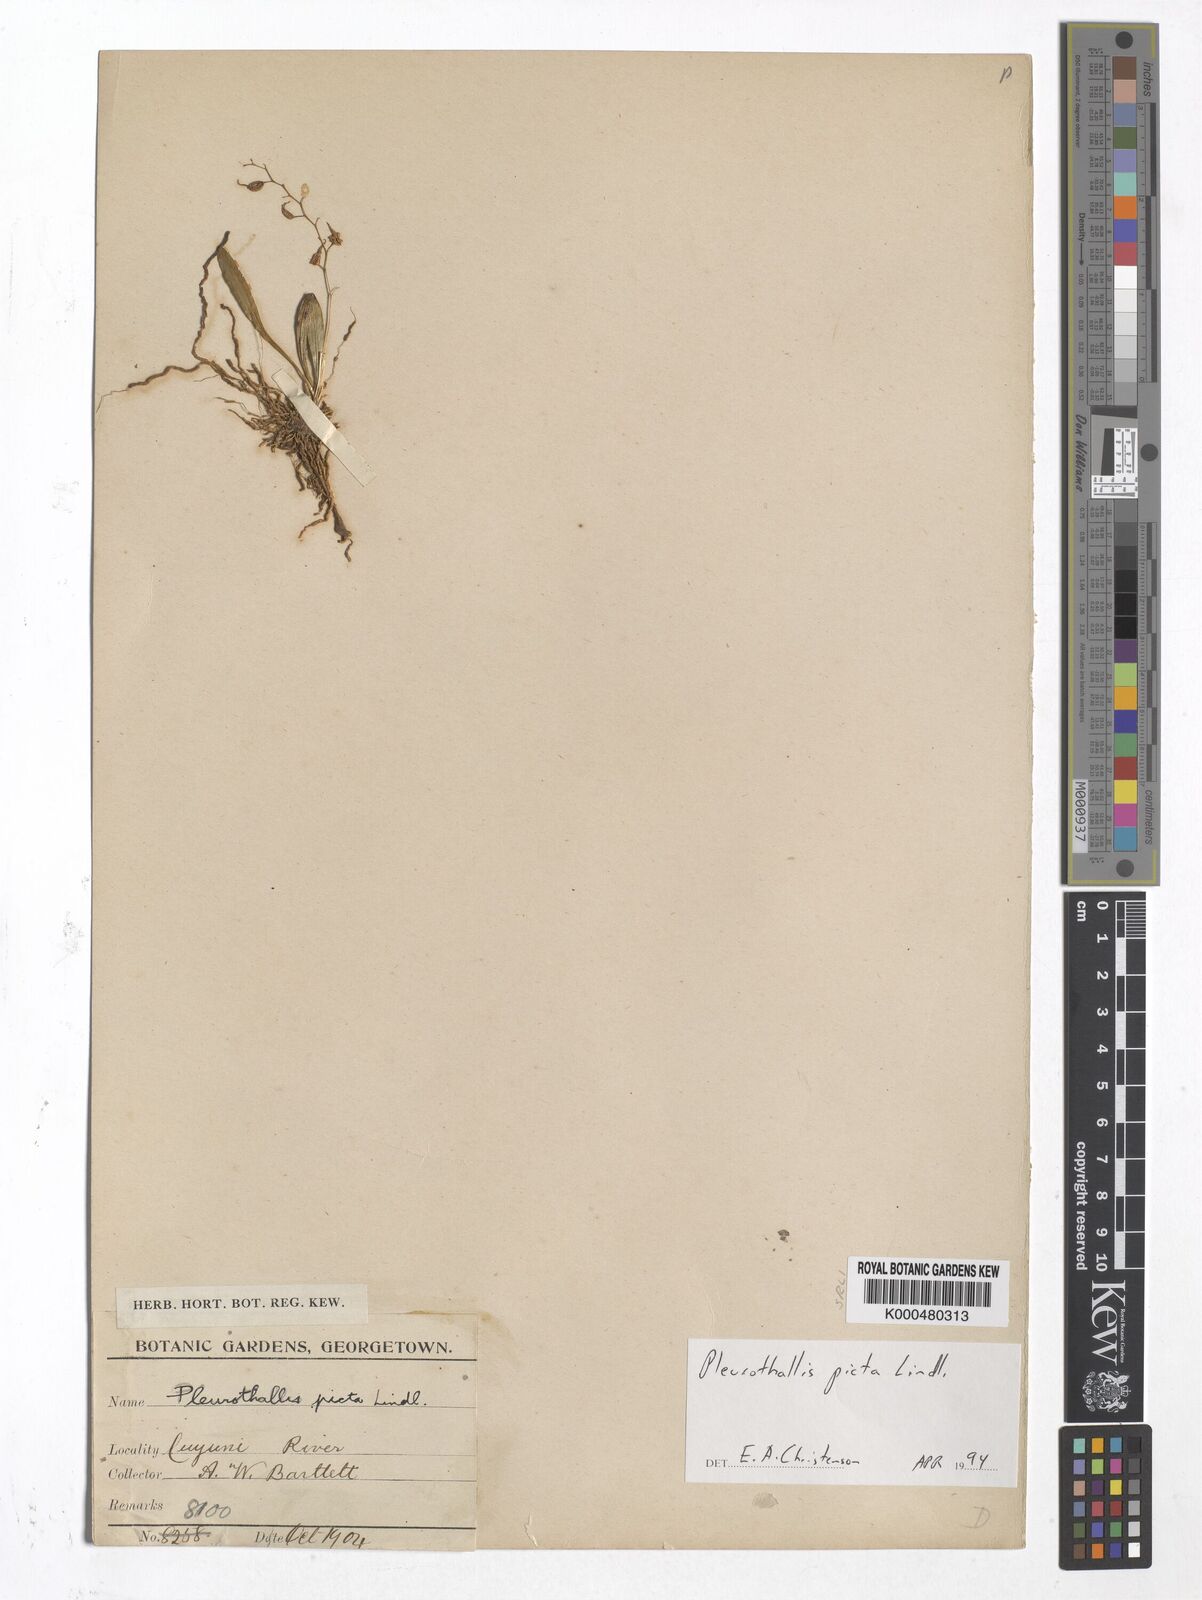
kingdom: Plantae
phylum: Tracheophyta
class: Liliopsida
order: Asparagales
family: Orchidaceae
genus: Specklinia
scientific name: Specklinia picta
